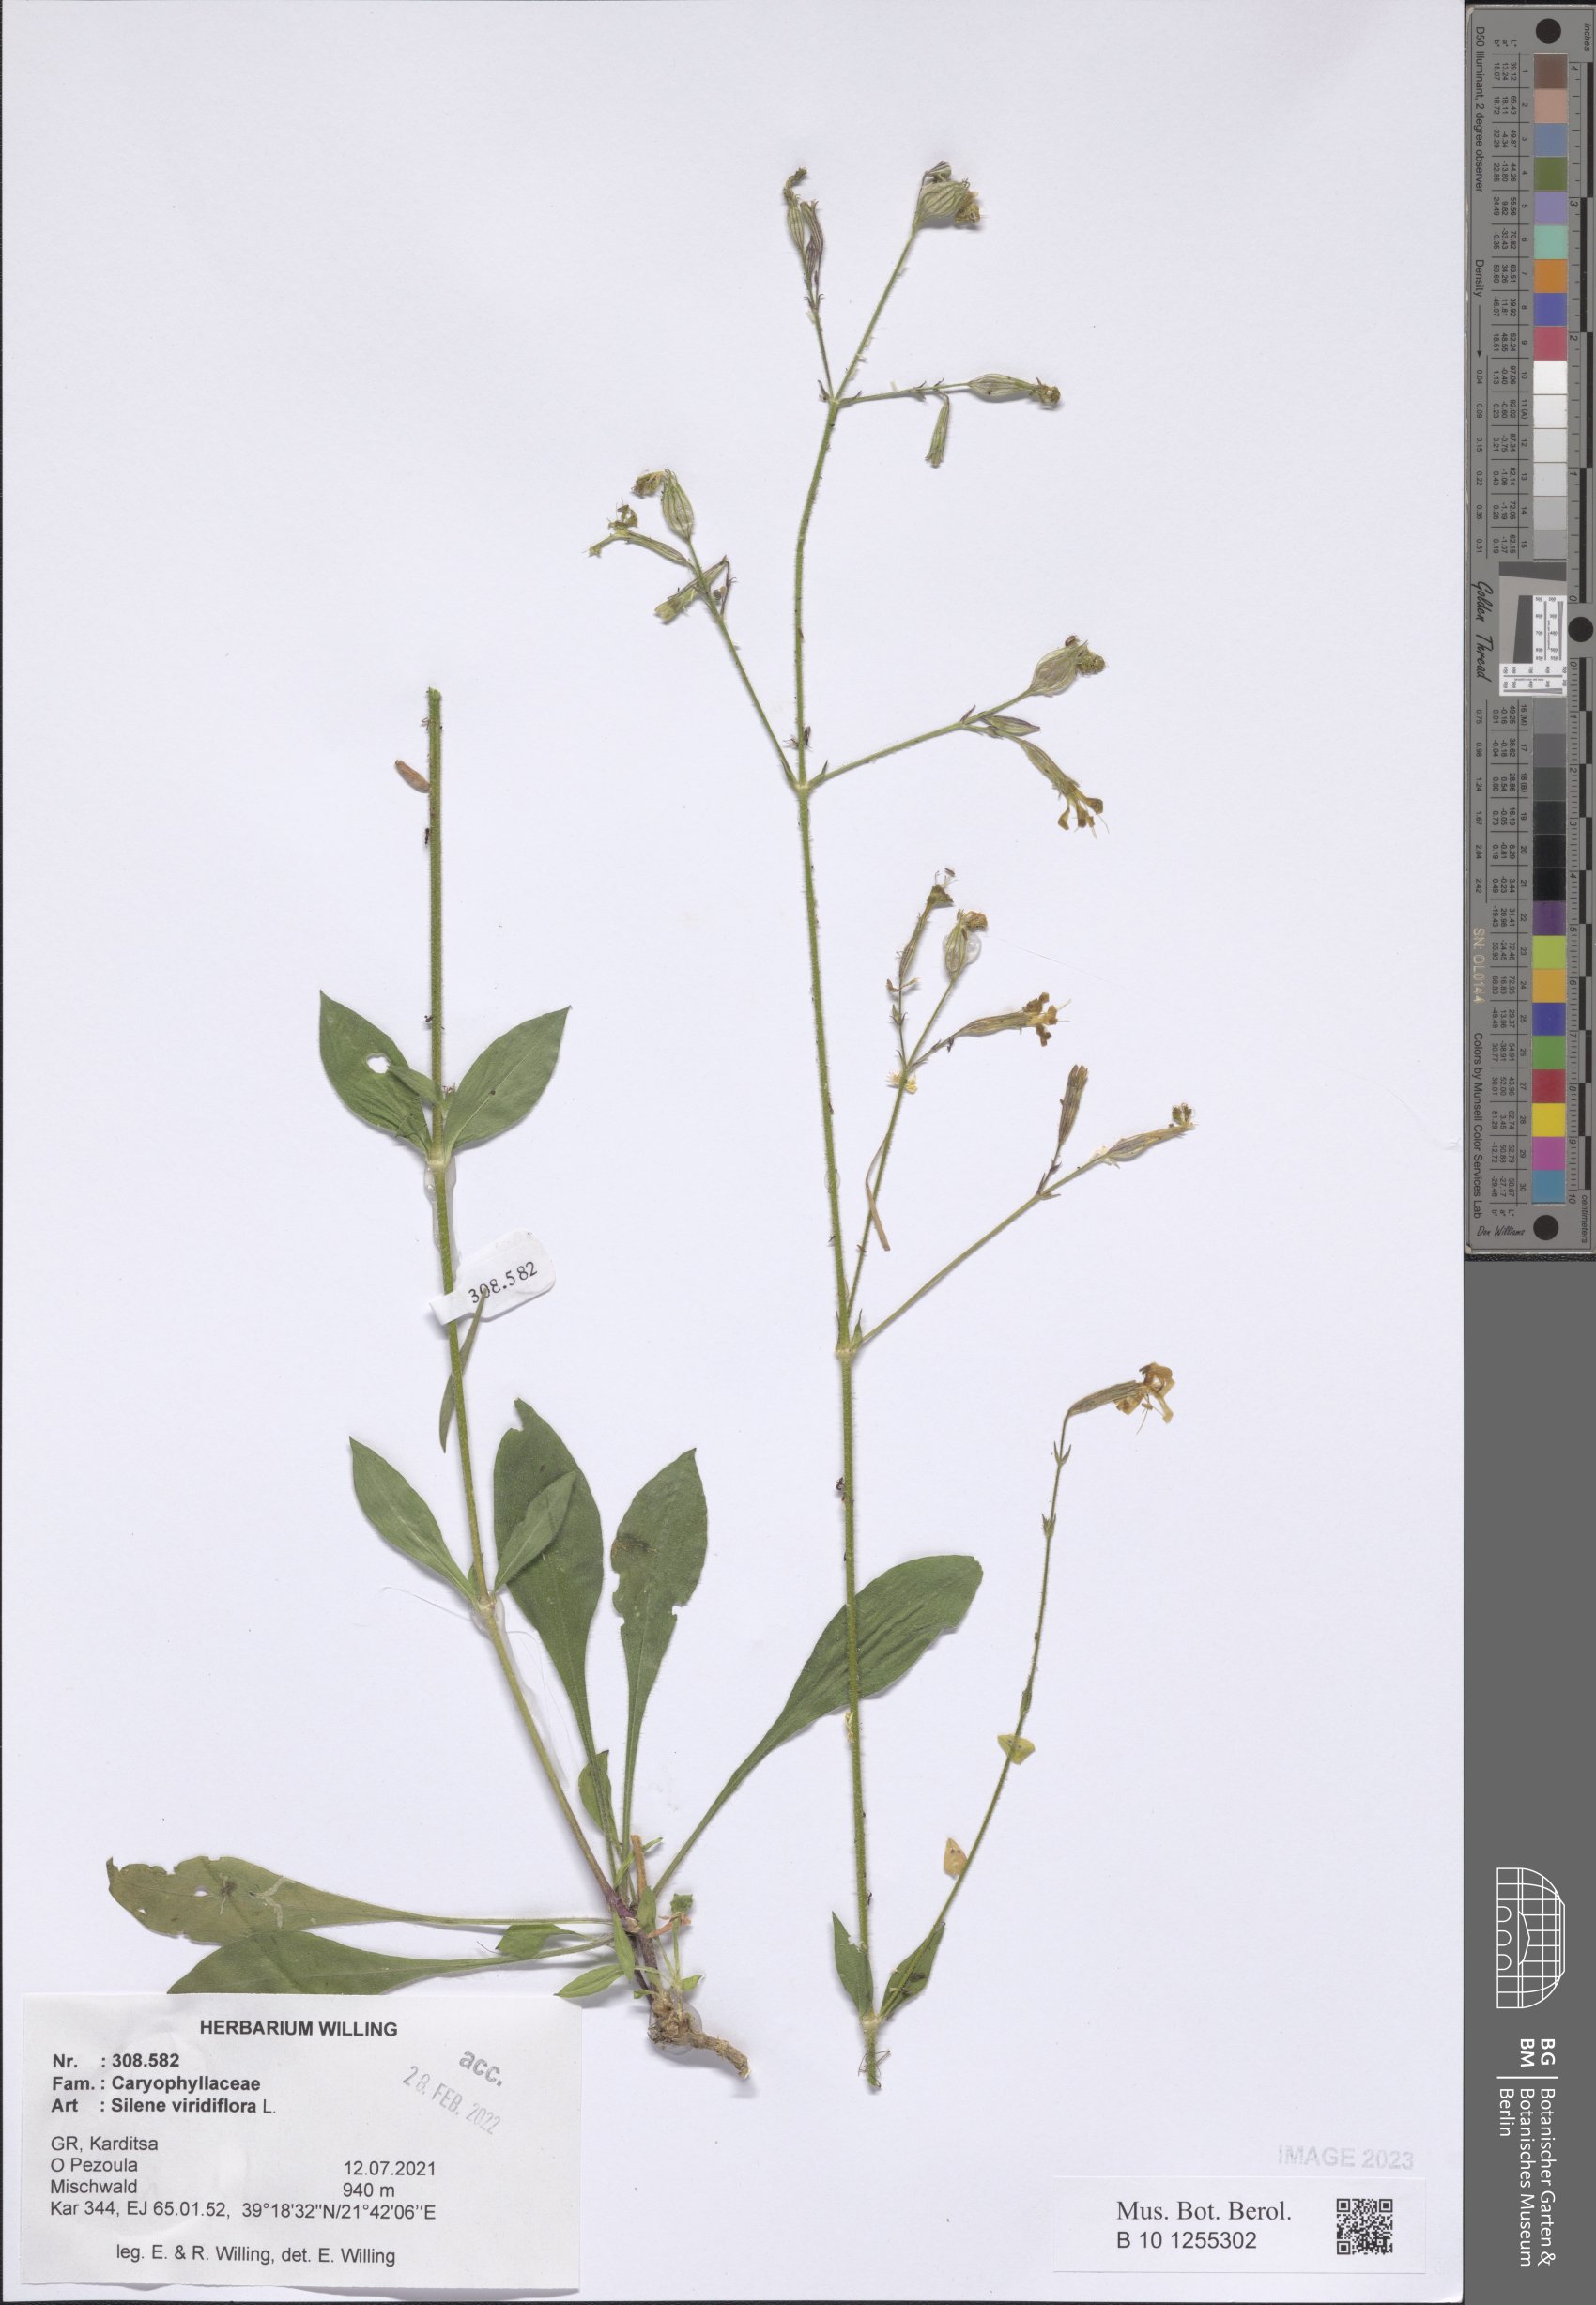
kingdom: Plantae
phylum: Tracheophyta
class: Magnoliopsida
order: Caryophyllales
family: Caryophyllaceae
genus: Silene
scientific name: Silene viridiflora
